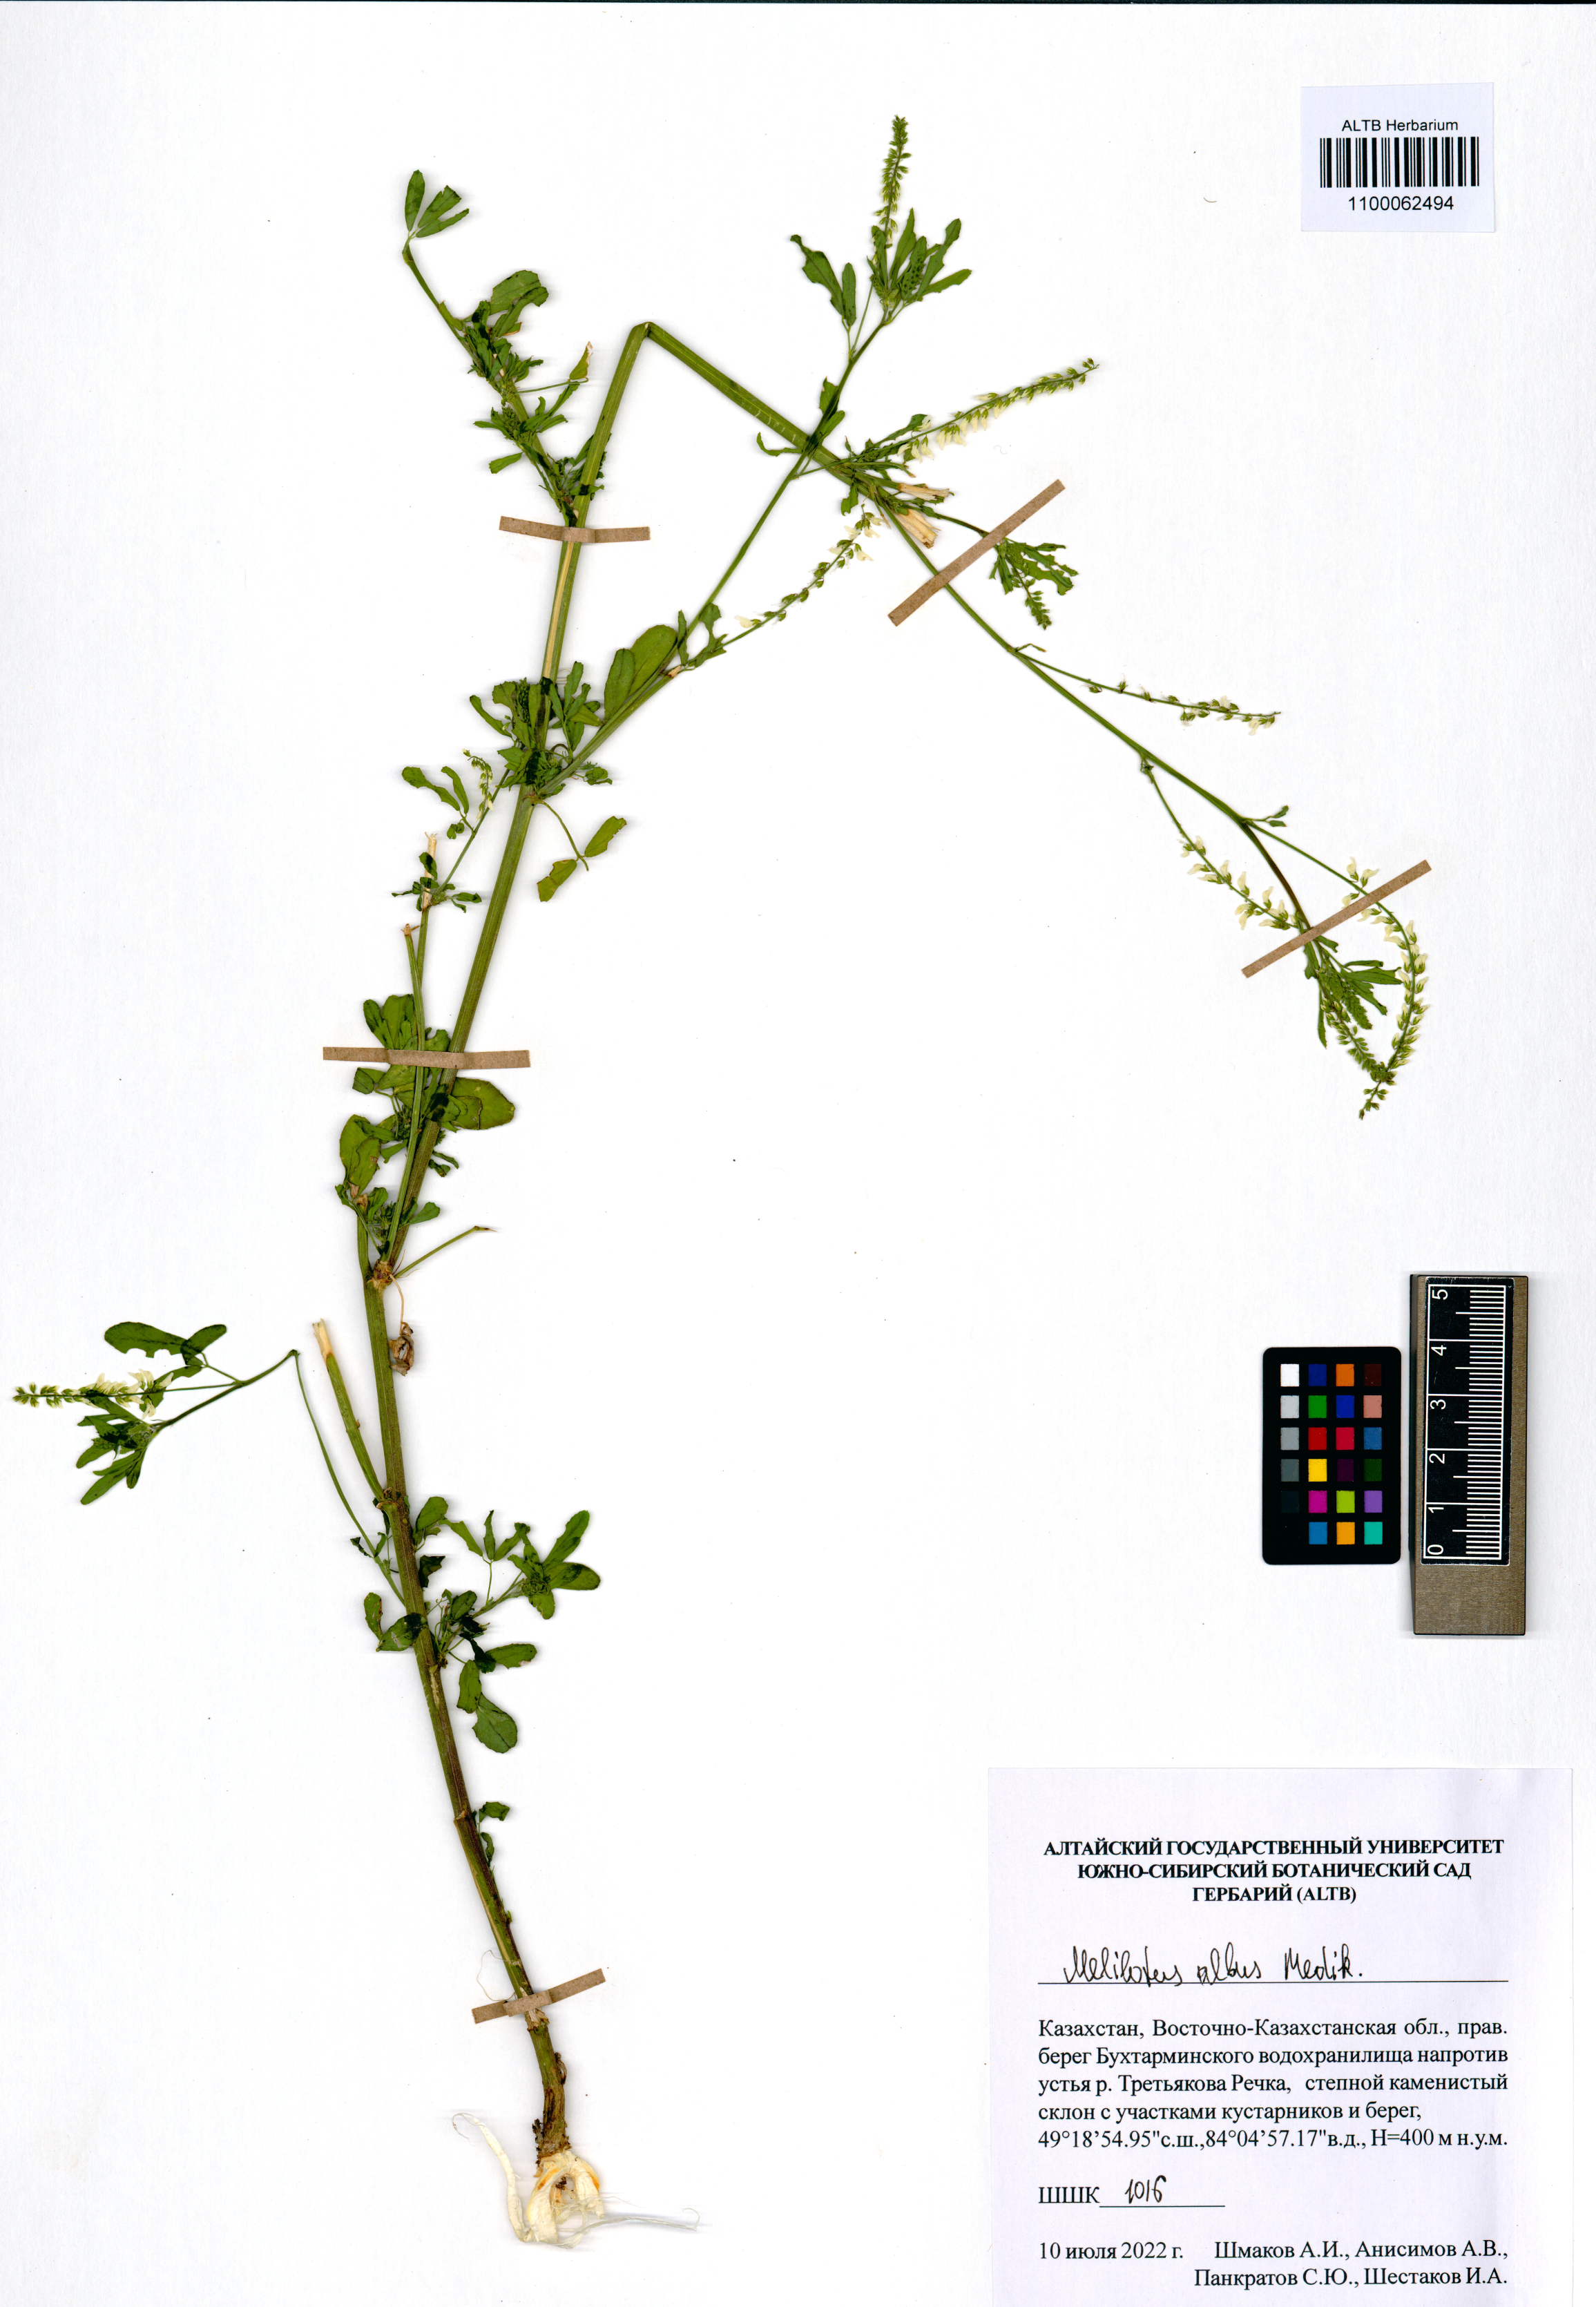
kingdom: Plantae
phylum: Tracheophyta
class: Magnoliopsida
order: Fabales
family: Fabaceae
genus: Melilotus
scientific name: Melilotus albus
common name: White melilot
